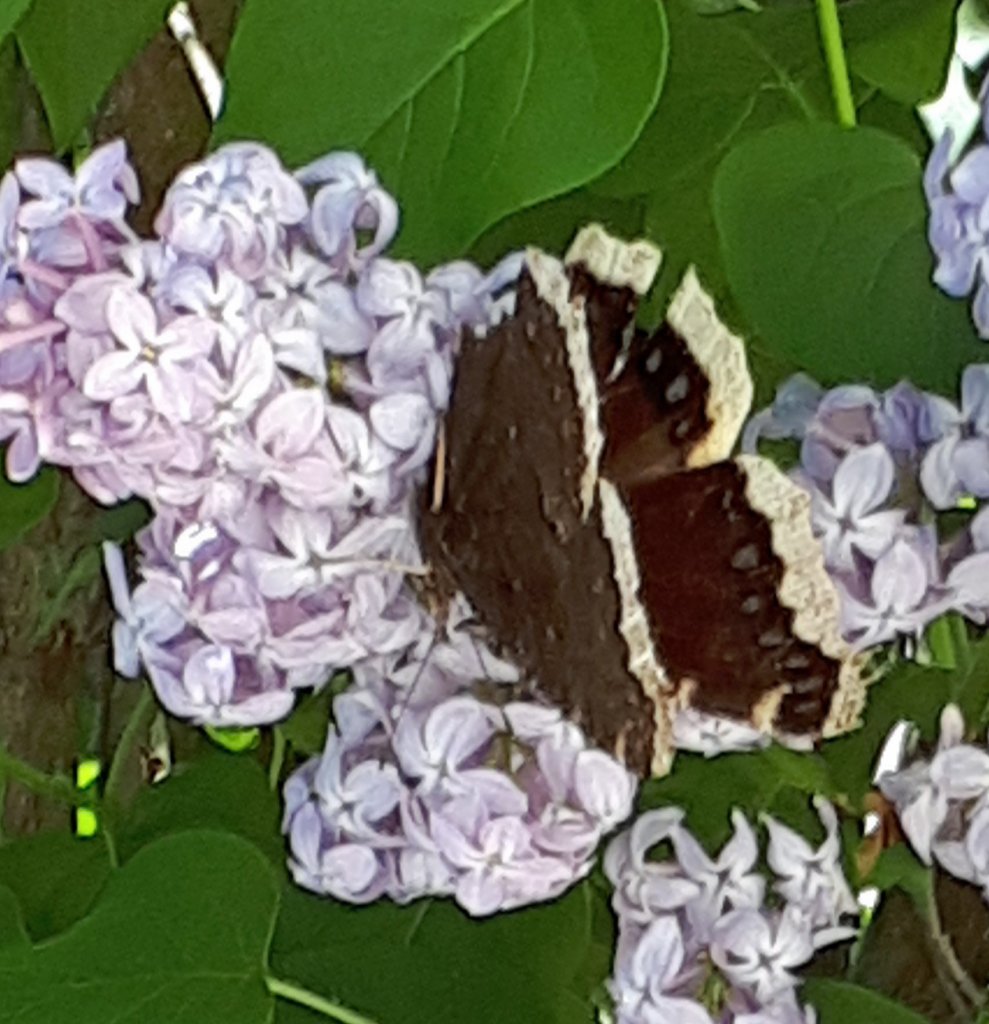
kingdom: Animalia
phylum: Arthropoda
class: Insecta
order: Lepidoptera
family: Nymphalidae
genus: Nymphalis
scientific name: Nymphalis antiopa
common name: Mourning Cloak
